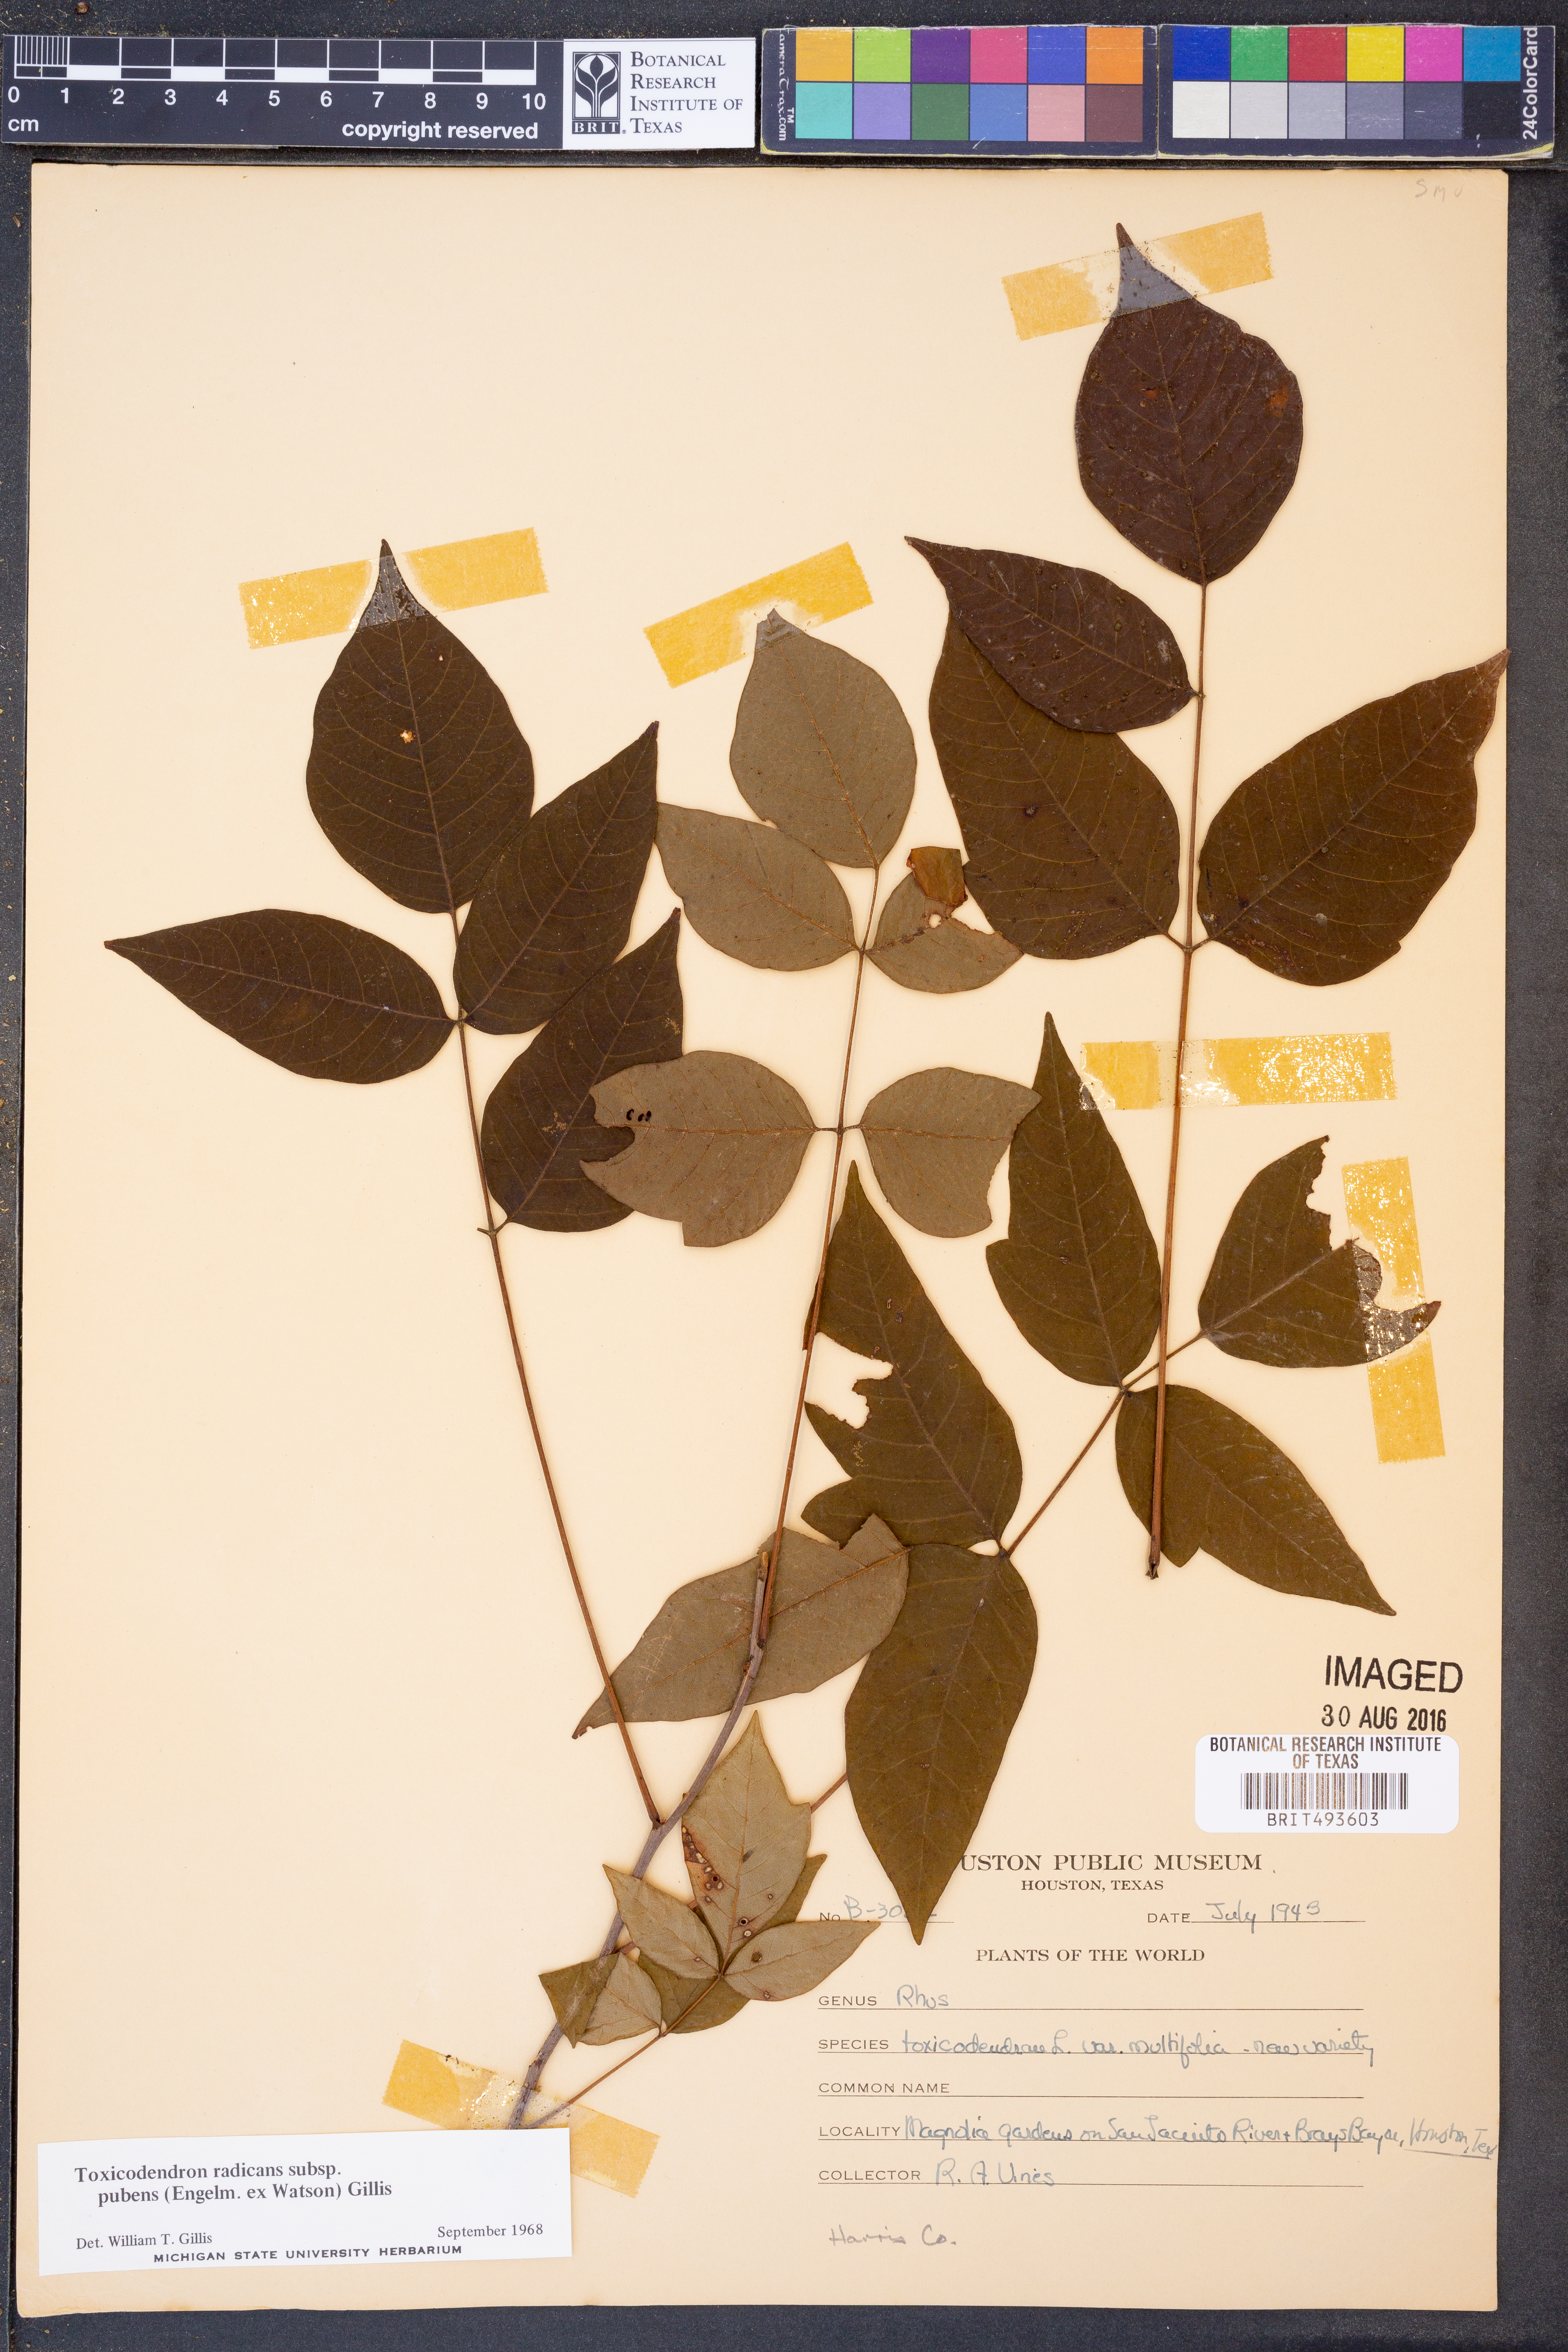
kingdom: Plantae
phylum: Tracheophyta
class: Magnoliopsida
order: Sapindales
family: Anacardiaceae
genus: Toxicodendron
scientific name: Toxicodendron radicans
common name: Poison ivy
